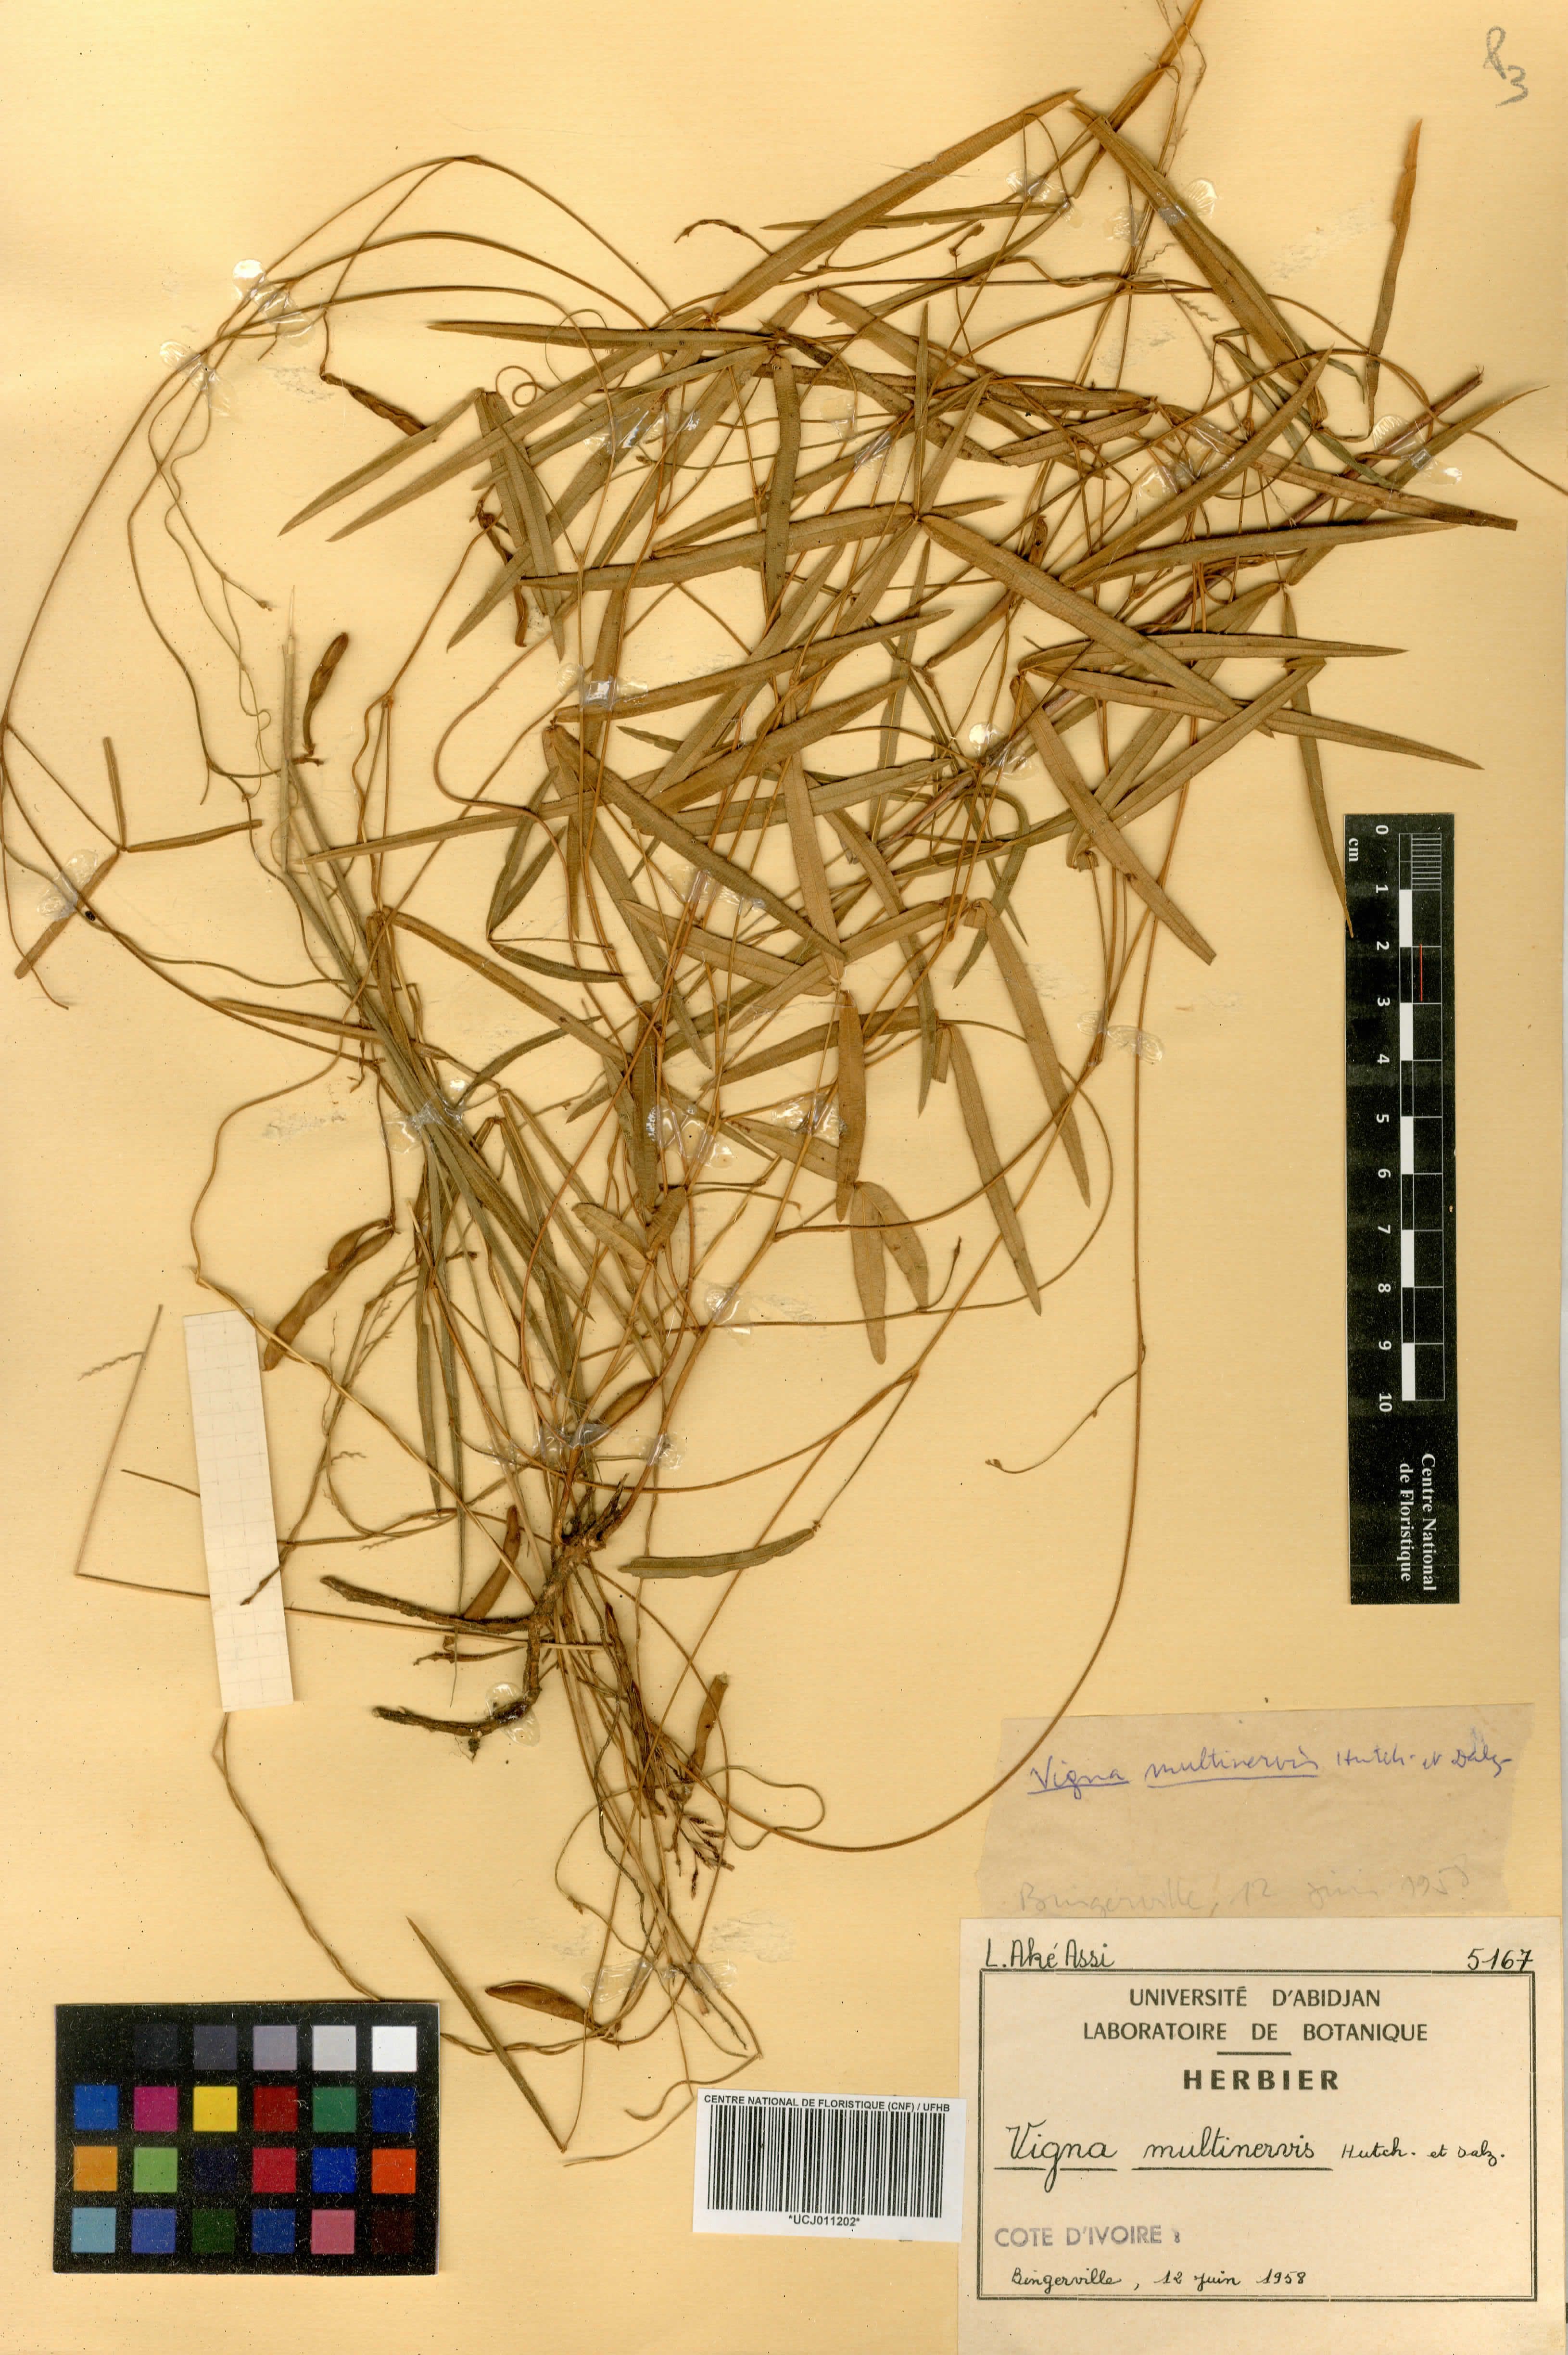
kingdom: Plantae
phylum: Tracheophyta
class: Magnoliopsida
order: Fabales
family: Fabaceae
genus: Vigna
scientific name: Vigna multinervis
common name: Fula-pulaar
